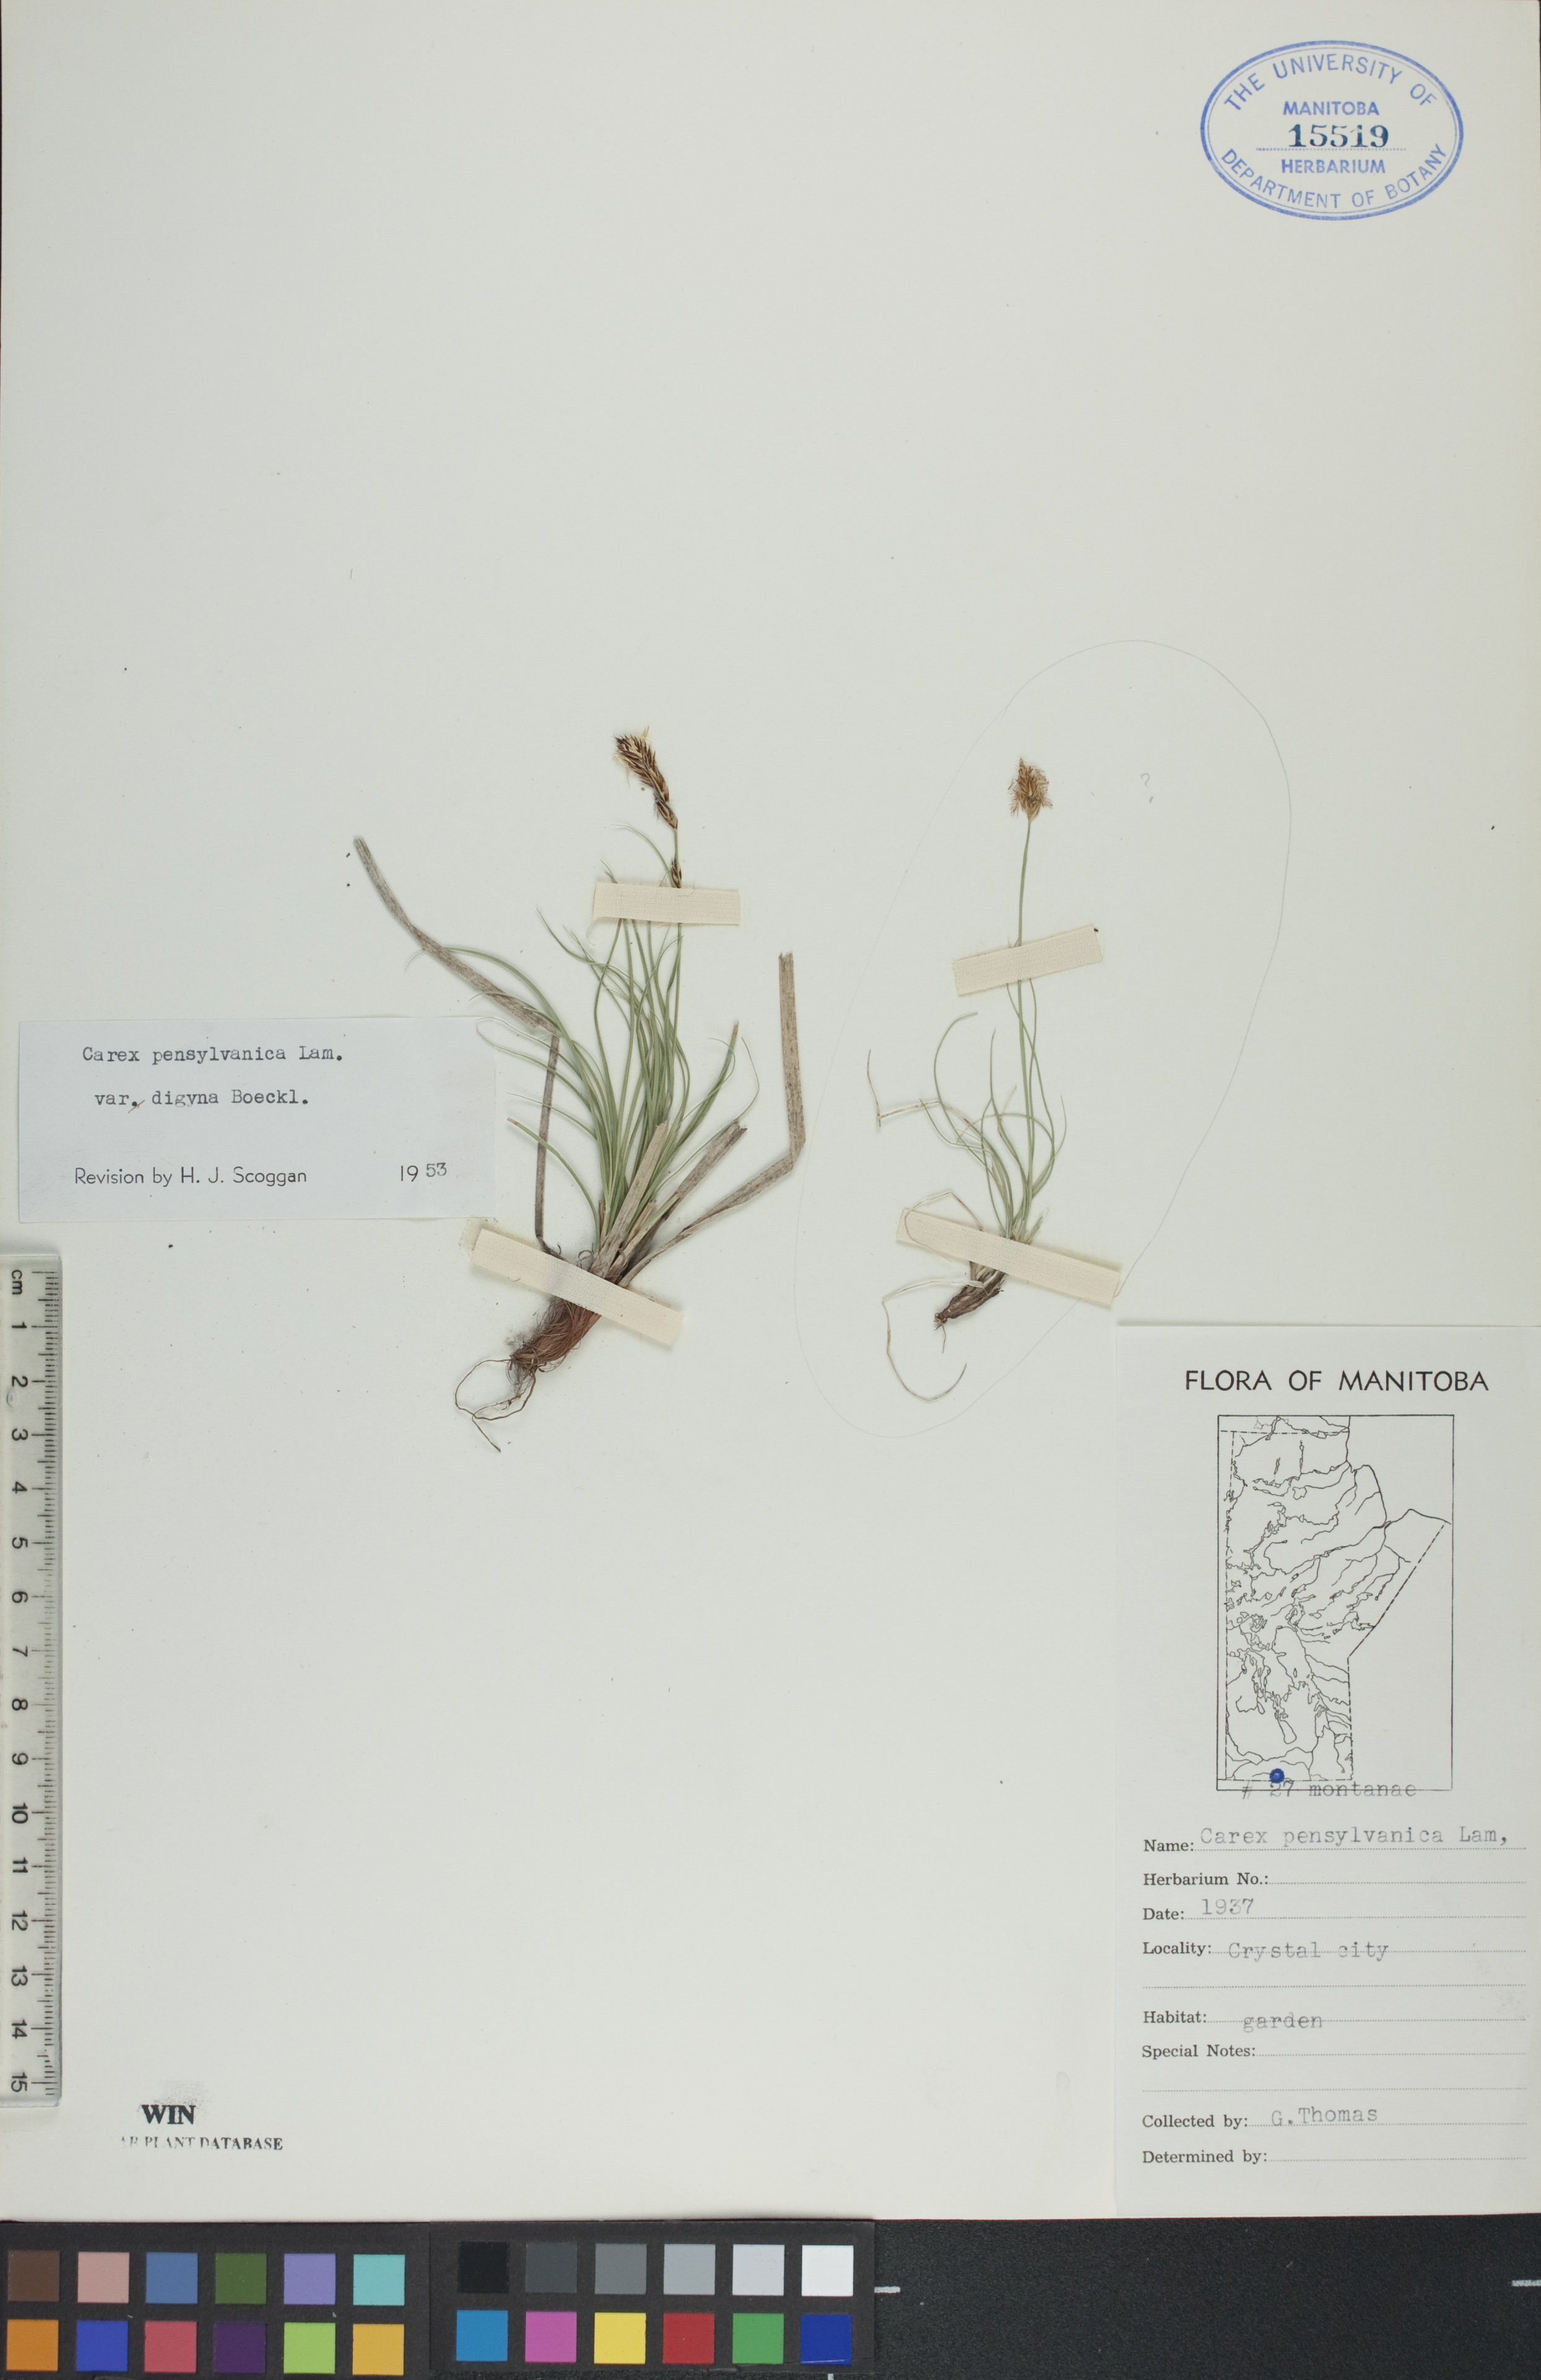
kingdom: Plantae
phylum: Tracheophyta
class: Liliopsida
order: Poales
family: Cyperaceae
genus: Carex
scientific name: Carex pensylvanica
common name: Common oak sedge
